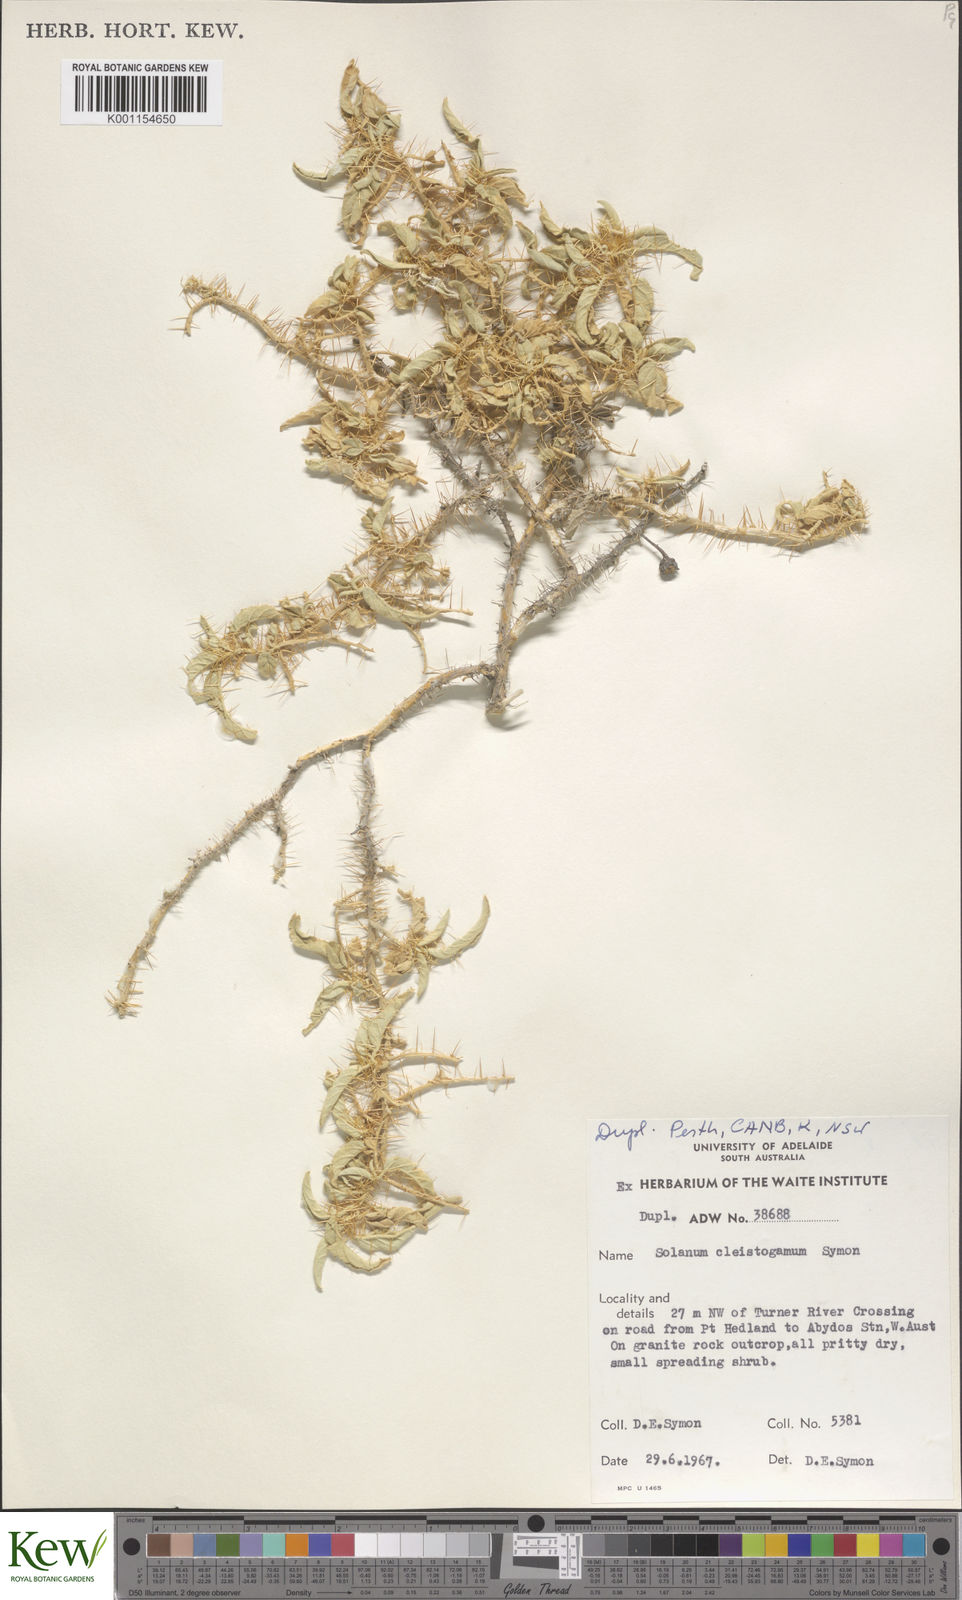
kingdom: Plantae
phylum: Tracheophyta
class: Magnoliopsida
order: Solanales
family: Solanaceae
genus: Solanum
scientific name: Solanum cleistogamum
